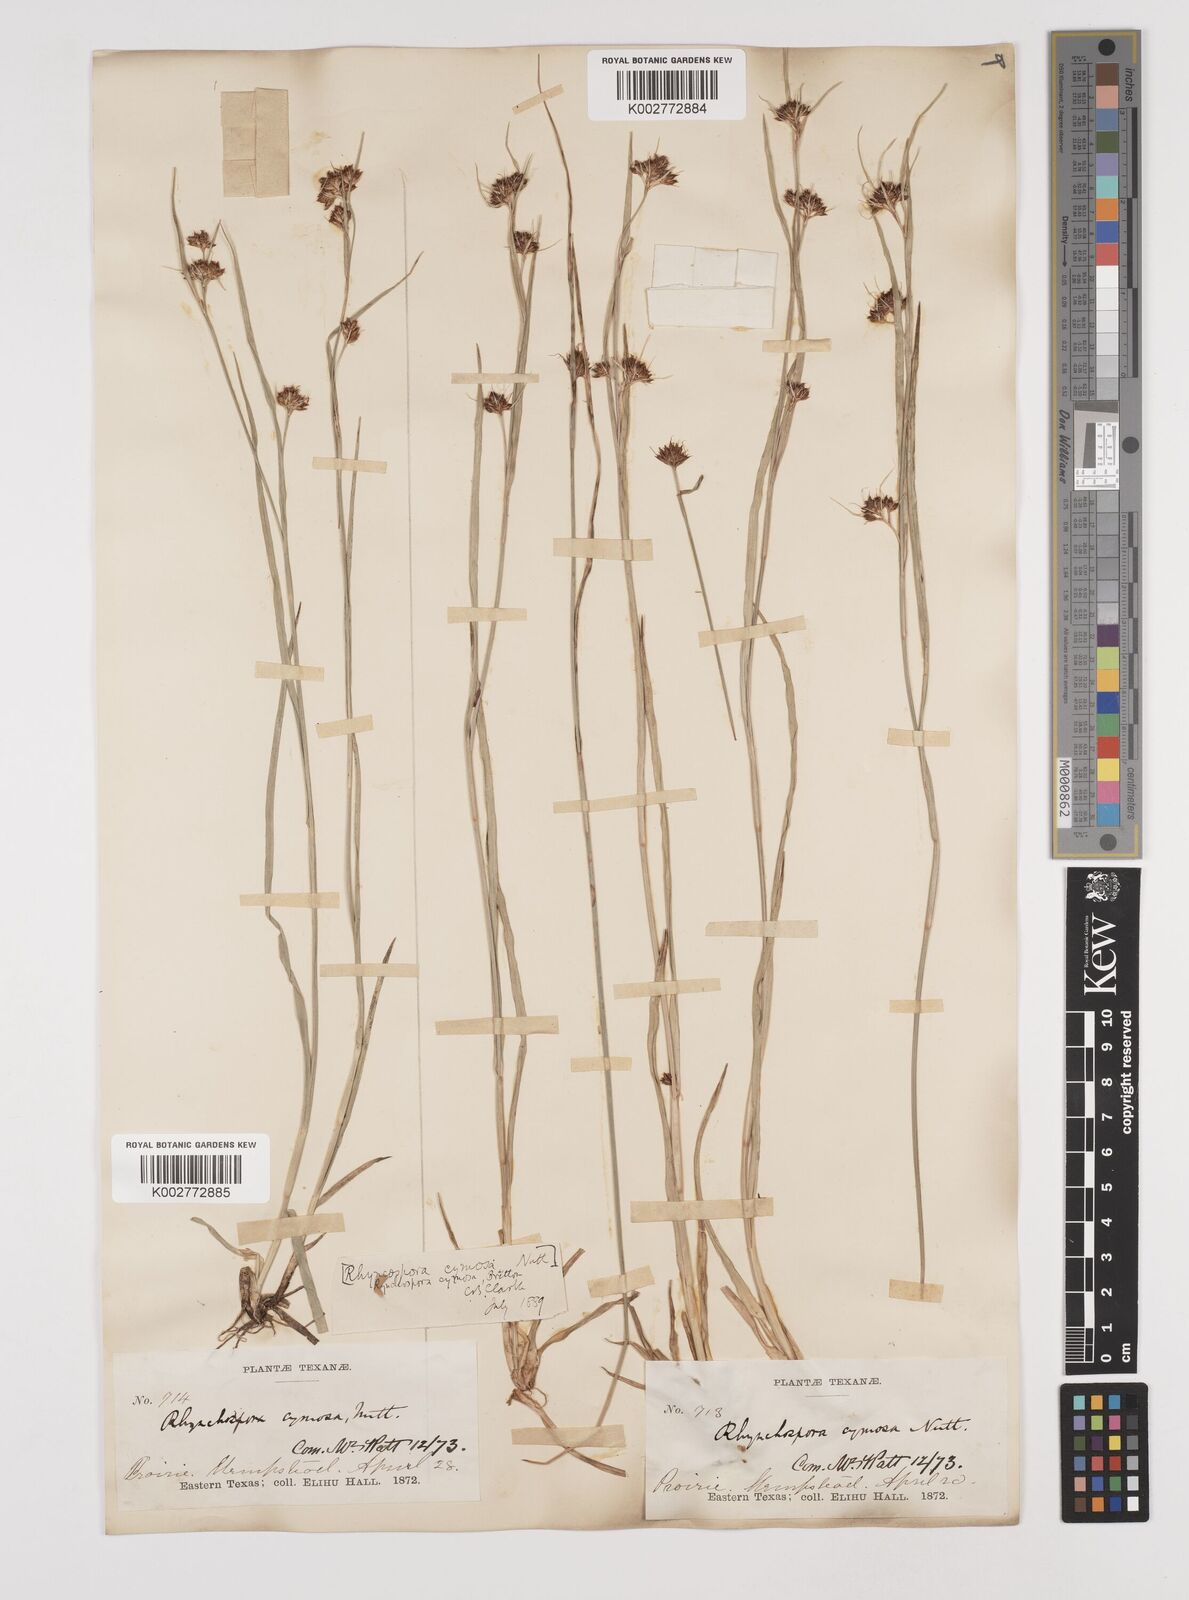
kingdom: Plantae
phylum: Tracheophyta
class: Liliopsida
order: Poales
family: Cyperaceae
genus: Scirpus
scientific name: Scirpus polyphyllus
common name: Leafy bulrush
